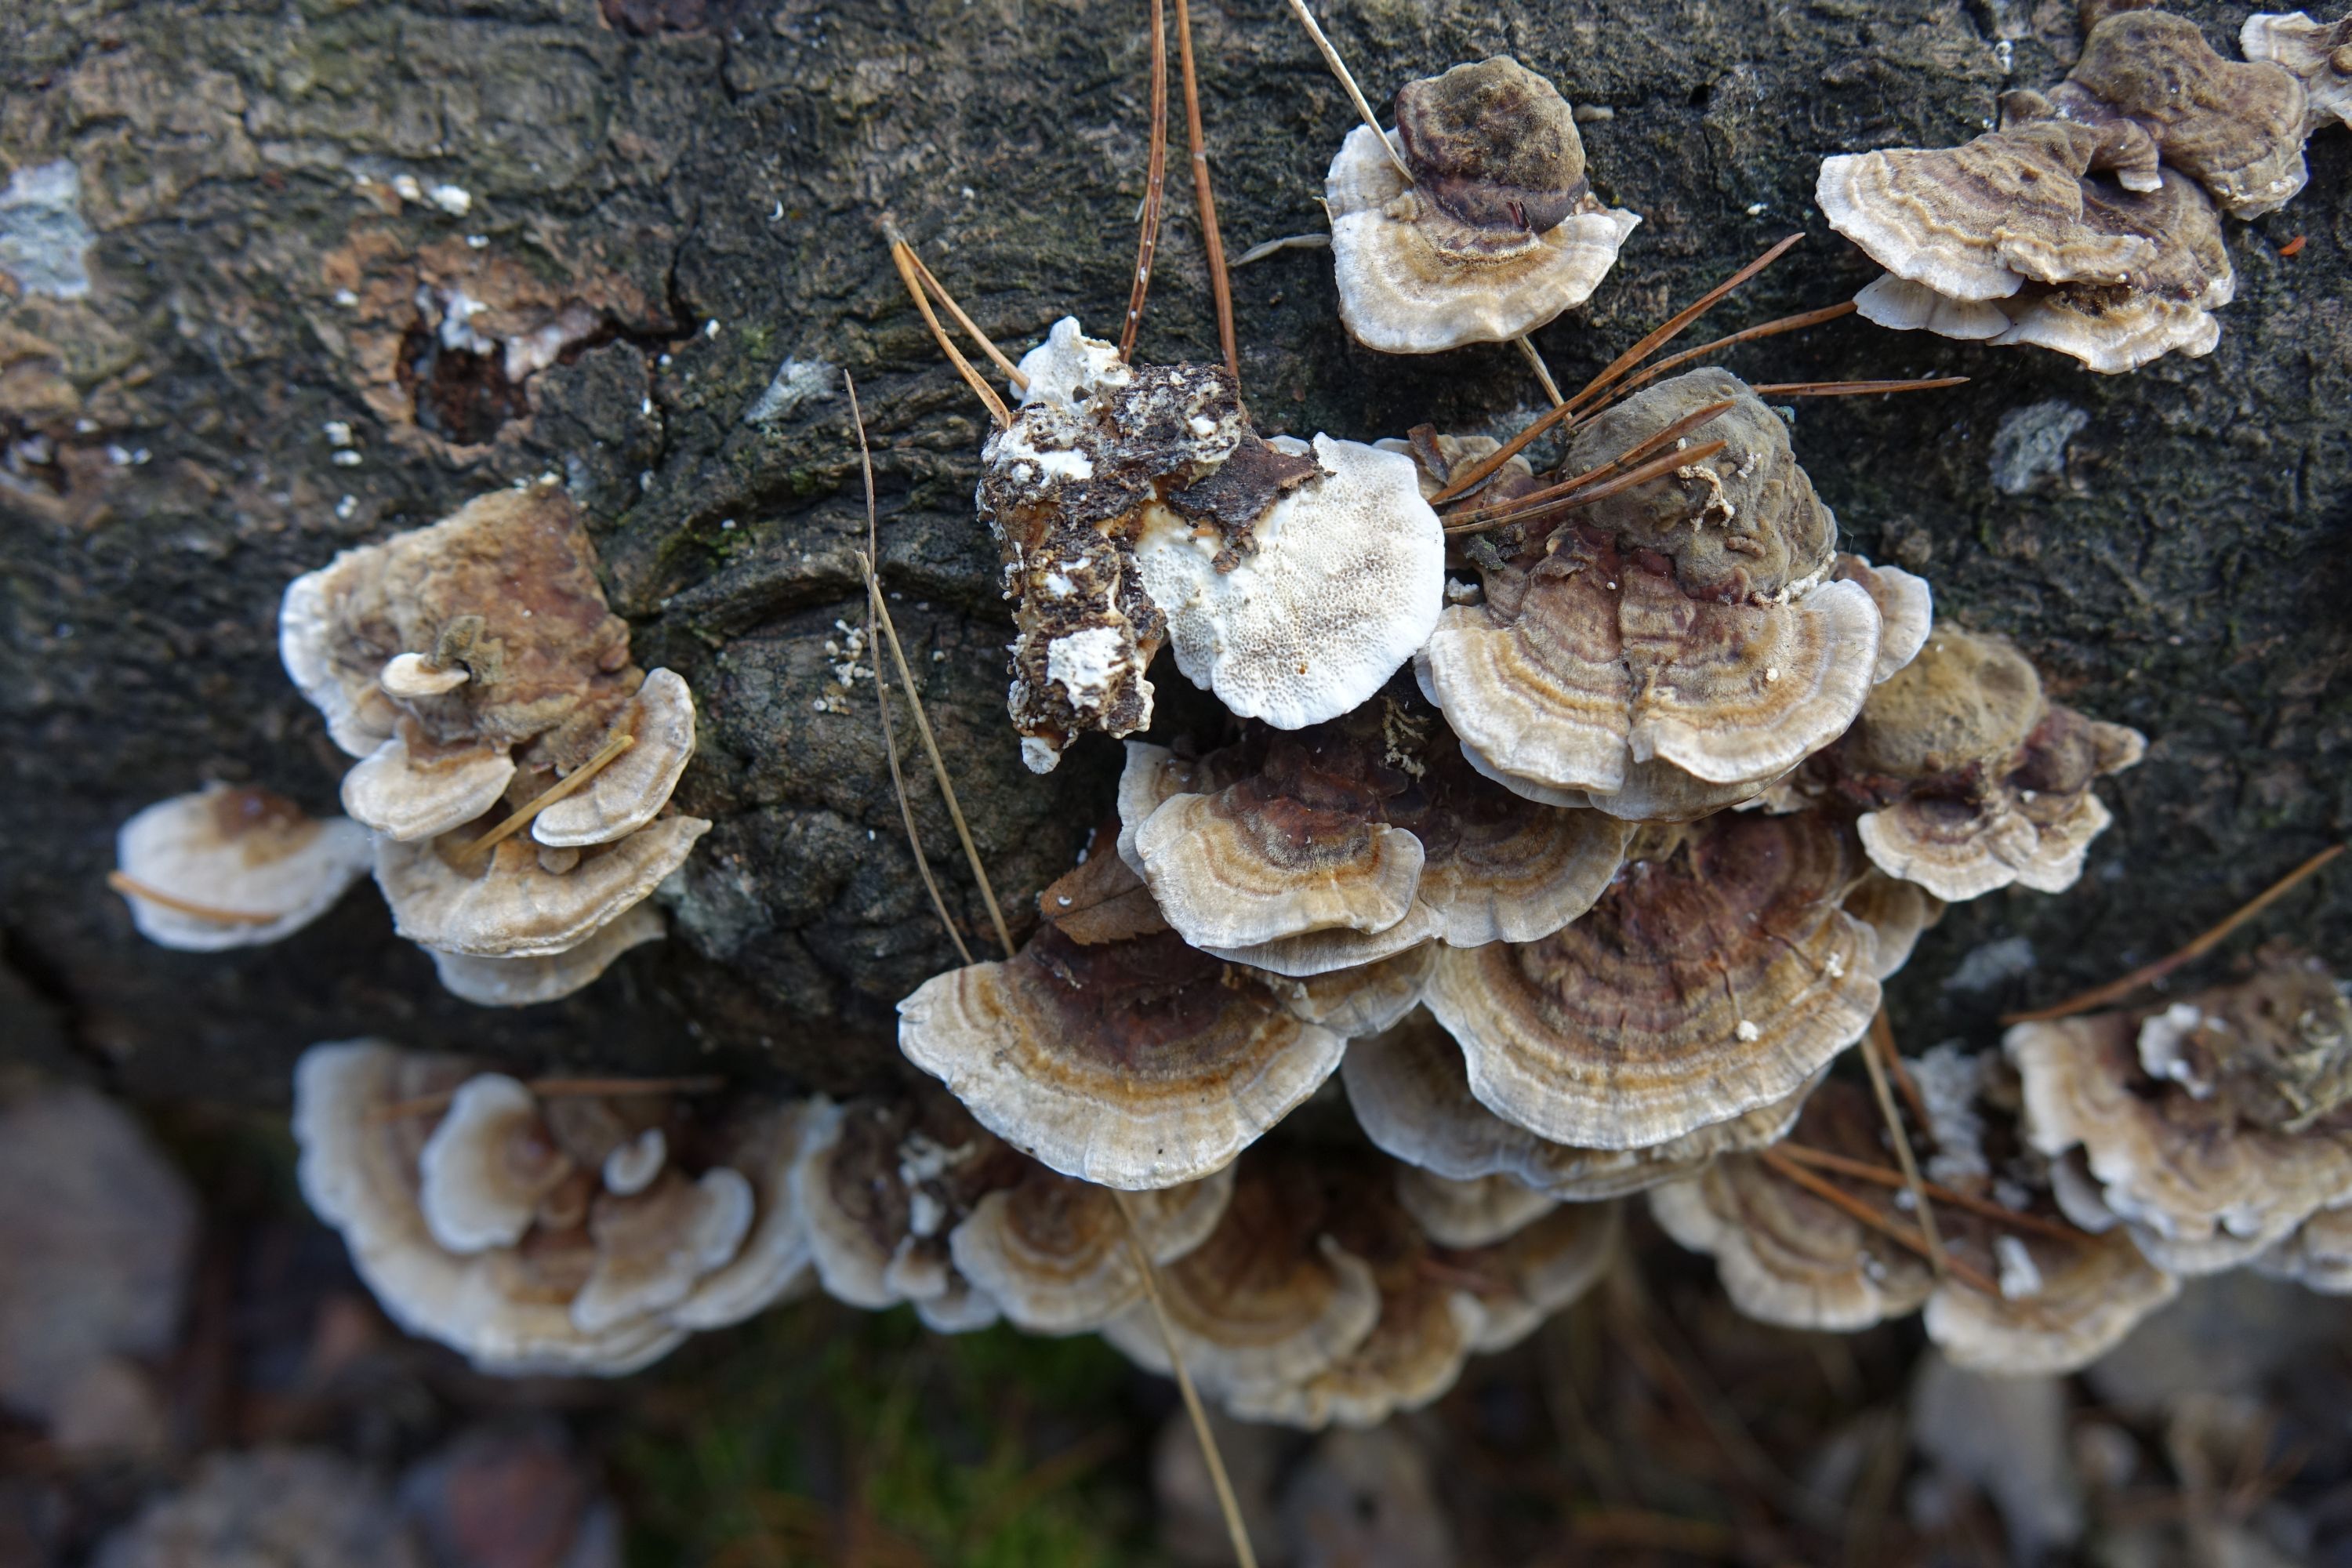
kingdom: Fungi
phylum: Basidiomycota
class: Agaricomycetes
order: Polyporales
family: Polyporaceae
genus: Trametes
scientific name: Trametes ochracea
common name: Ochre bracket
